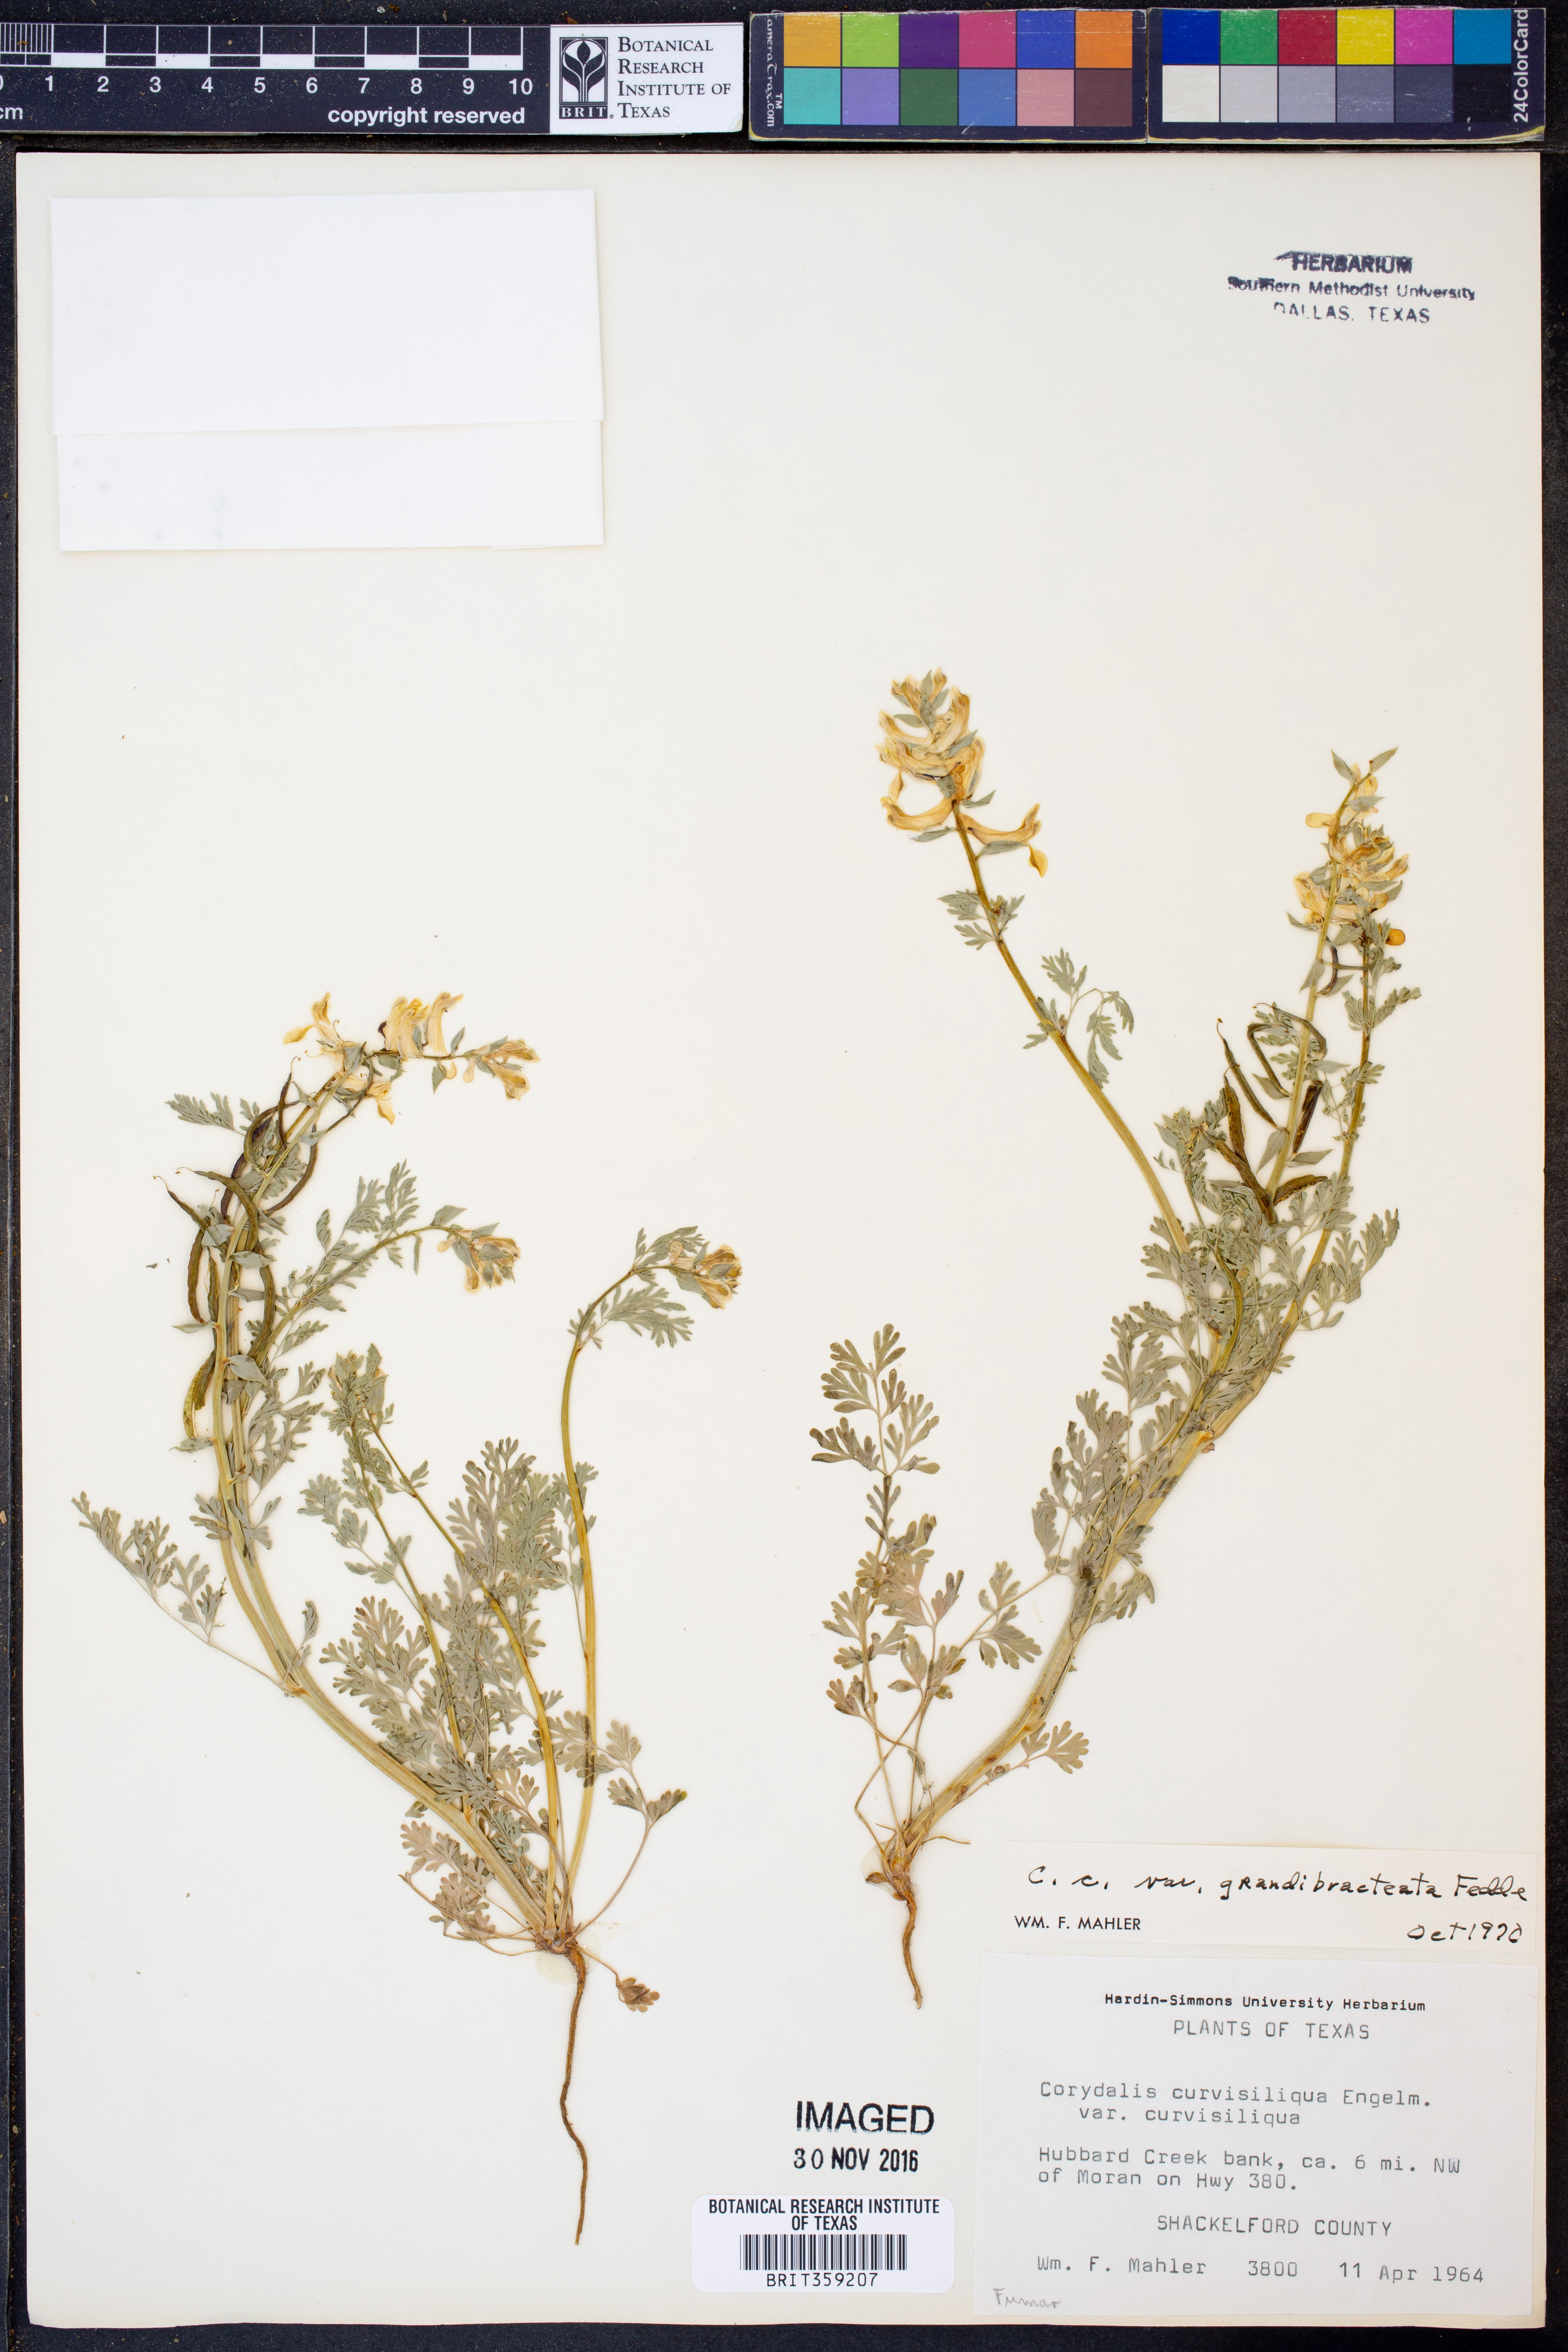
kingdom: Plantae
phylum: Tracheophyta
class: Magnoliopsida
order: Ranunculales
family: Papaveraceae
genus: Corydalis
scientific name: Corydalis curvisiliqua
